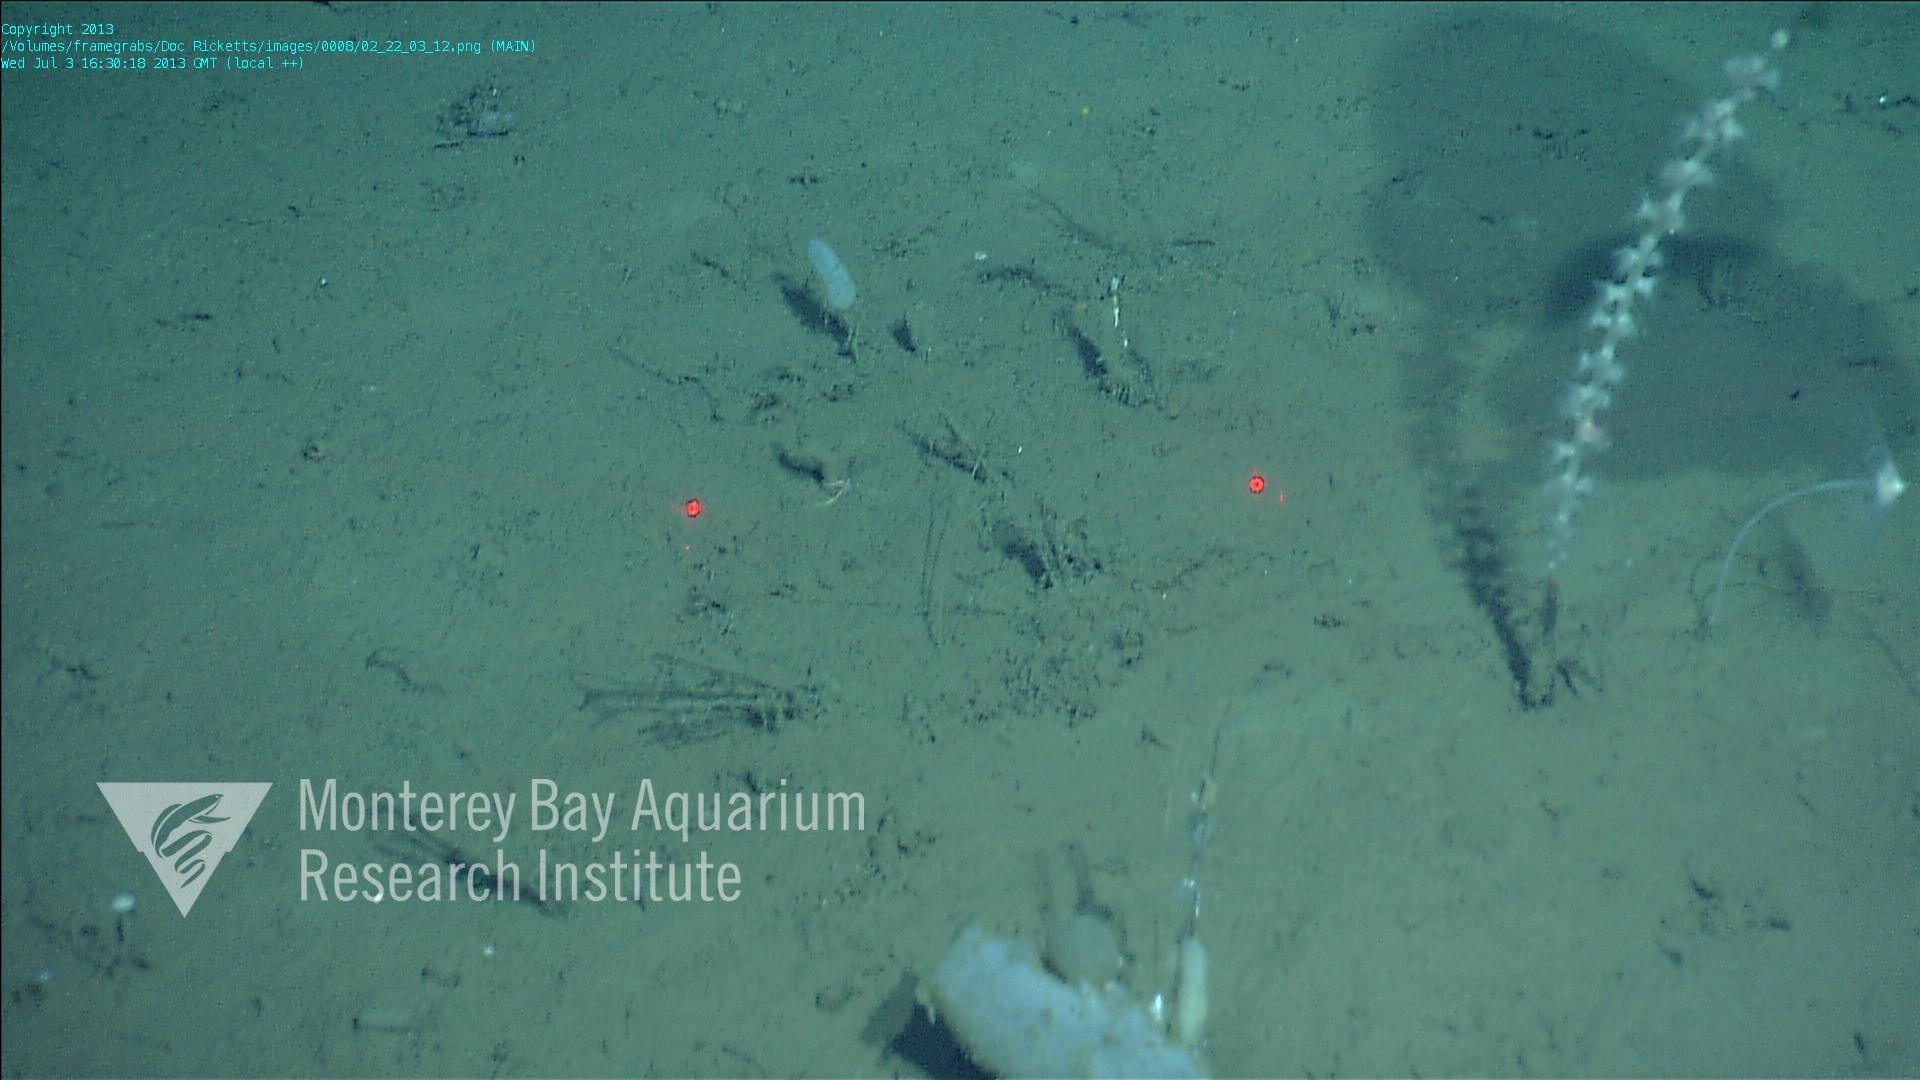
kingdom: Animalia
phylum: Porifera
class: Demospongiae
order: Poecilosclerida
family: Cladorhizidae
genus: Cladorhiza
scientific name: Cladorhiza
